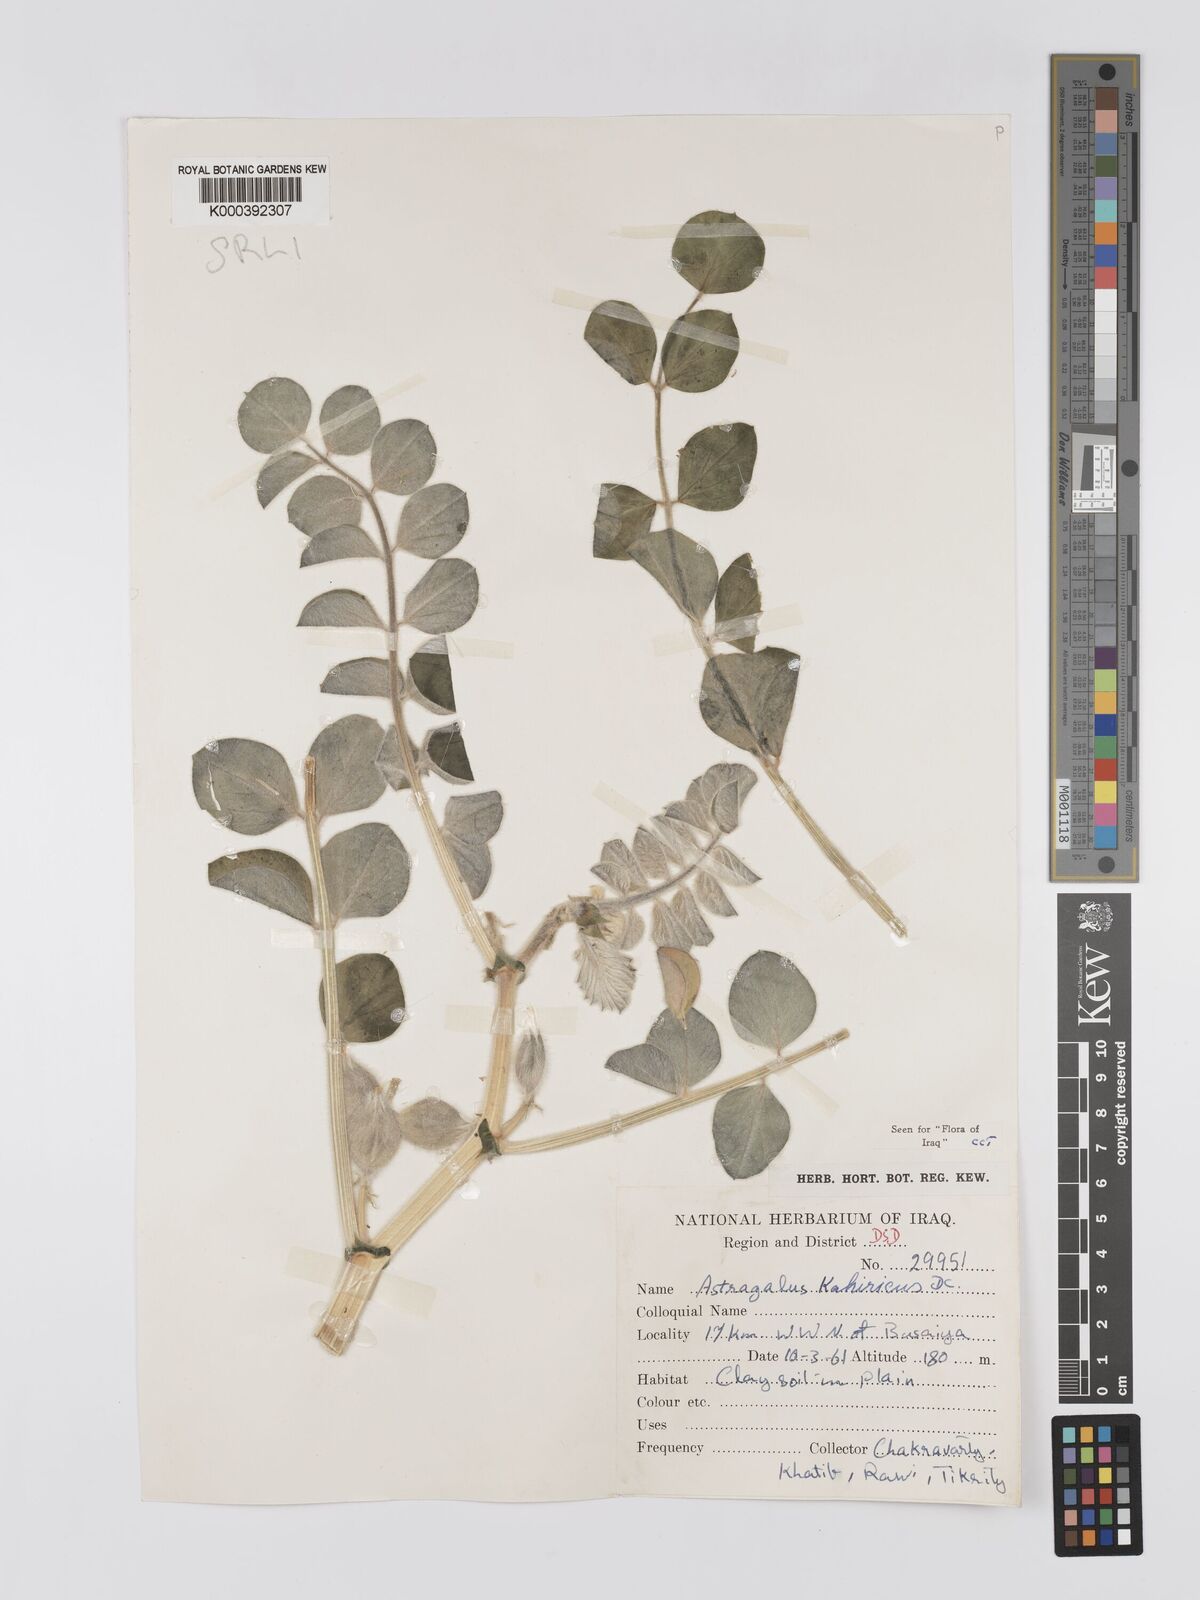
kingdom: Plantae
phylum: Tracheophyta
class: Magnoliopsida
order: Fabales
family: Fabaceae
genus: Astragalus
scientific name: Astragalus kahiricus
